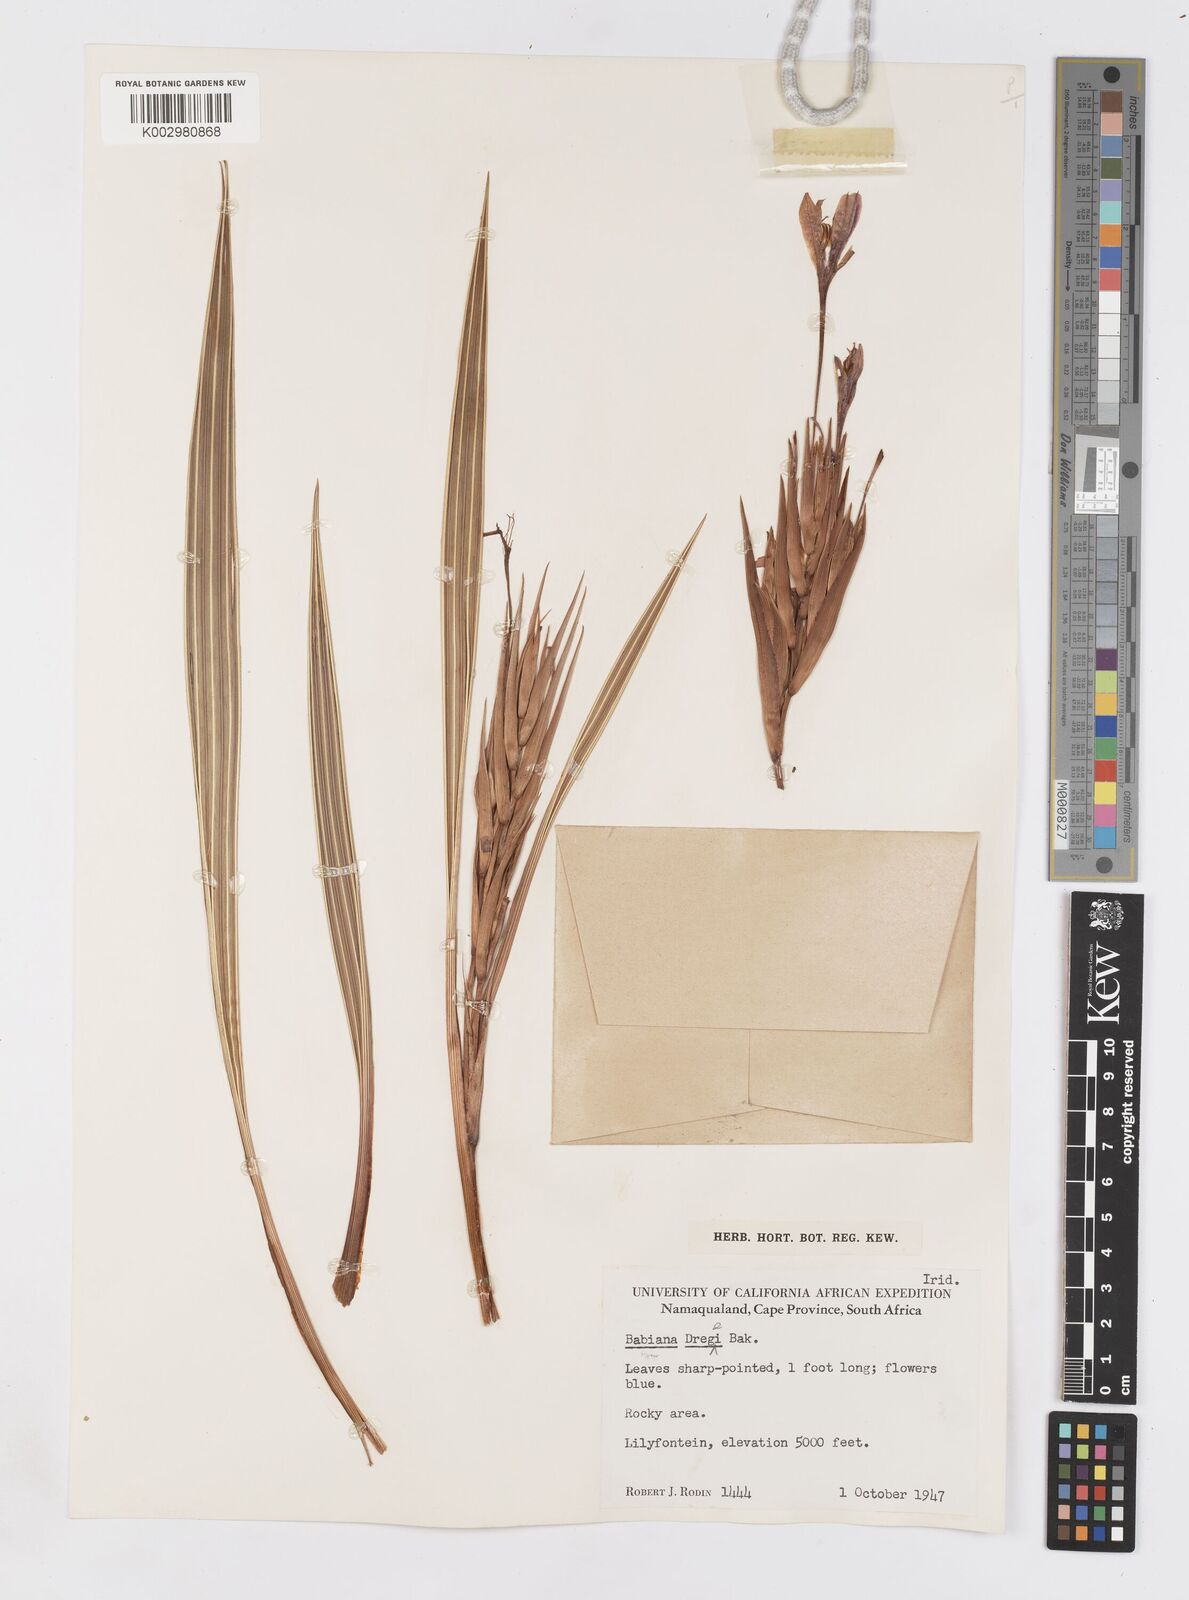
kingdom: Plantae
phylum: Tracheophyta
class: Liliopsida
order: Asparagales
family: Iridaceae
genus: Babiana
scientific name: Babiana dregei
